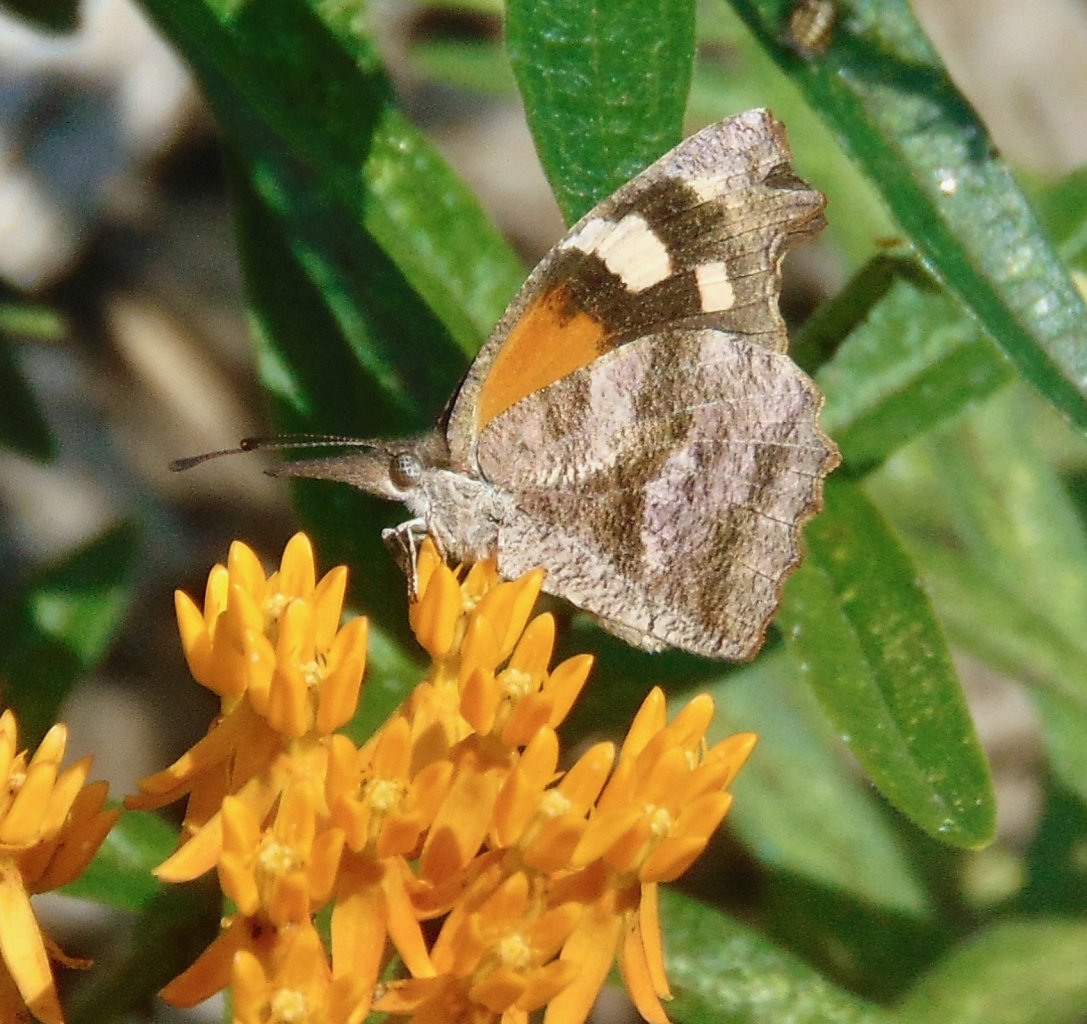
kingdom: Animalia
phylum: Arthropoda
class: Insecta
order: Lepidoptera
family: Nymphalidae
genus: Libytheana
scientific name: Libytheana carinenta
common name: American Snout
